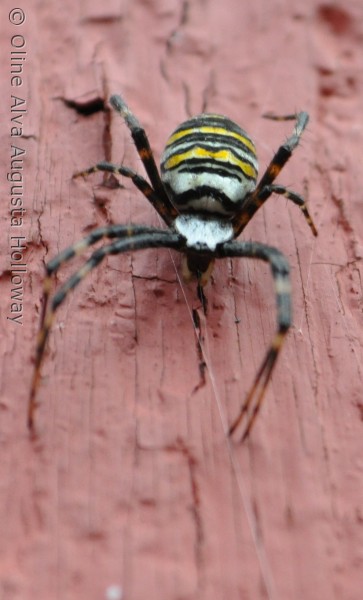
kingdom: Animalia
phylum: Arthropoda
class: Arachnida
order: Araneae
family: Araneidae
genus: Argiope
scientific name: Argiope bruennichi
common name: Hvepseedderkop
